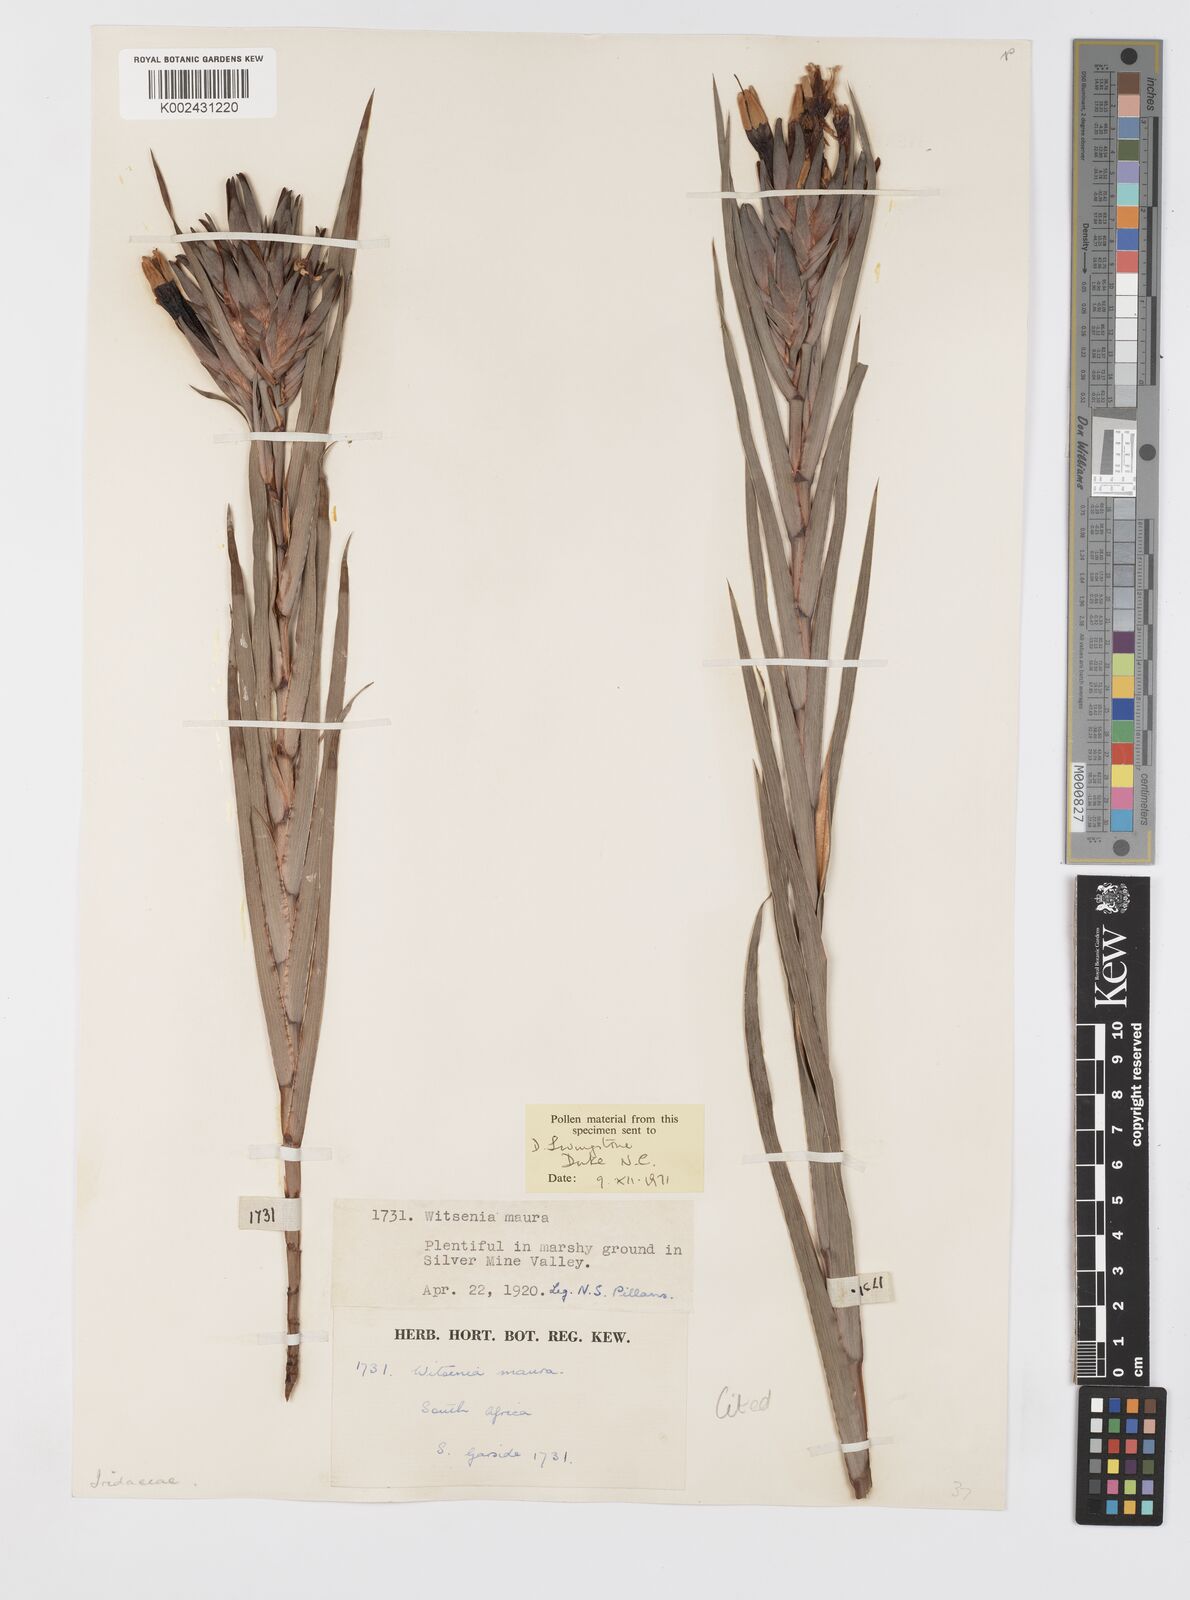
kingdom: Plantae
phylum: Tracheophyta
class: Liliopsida
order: Asparagales
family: Iridaceae
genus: Witsenia
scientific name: Witsenia maura
